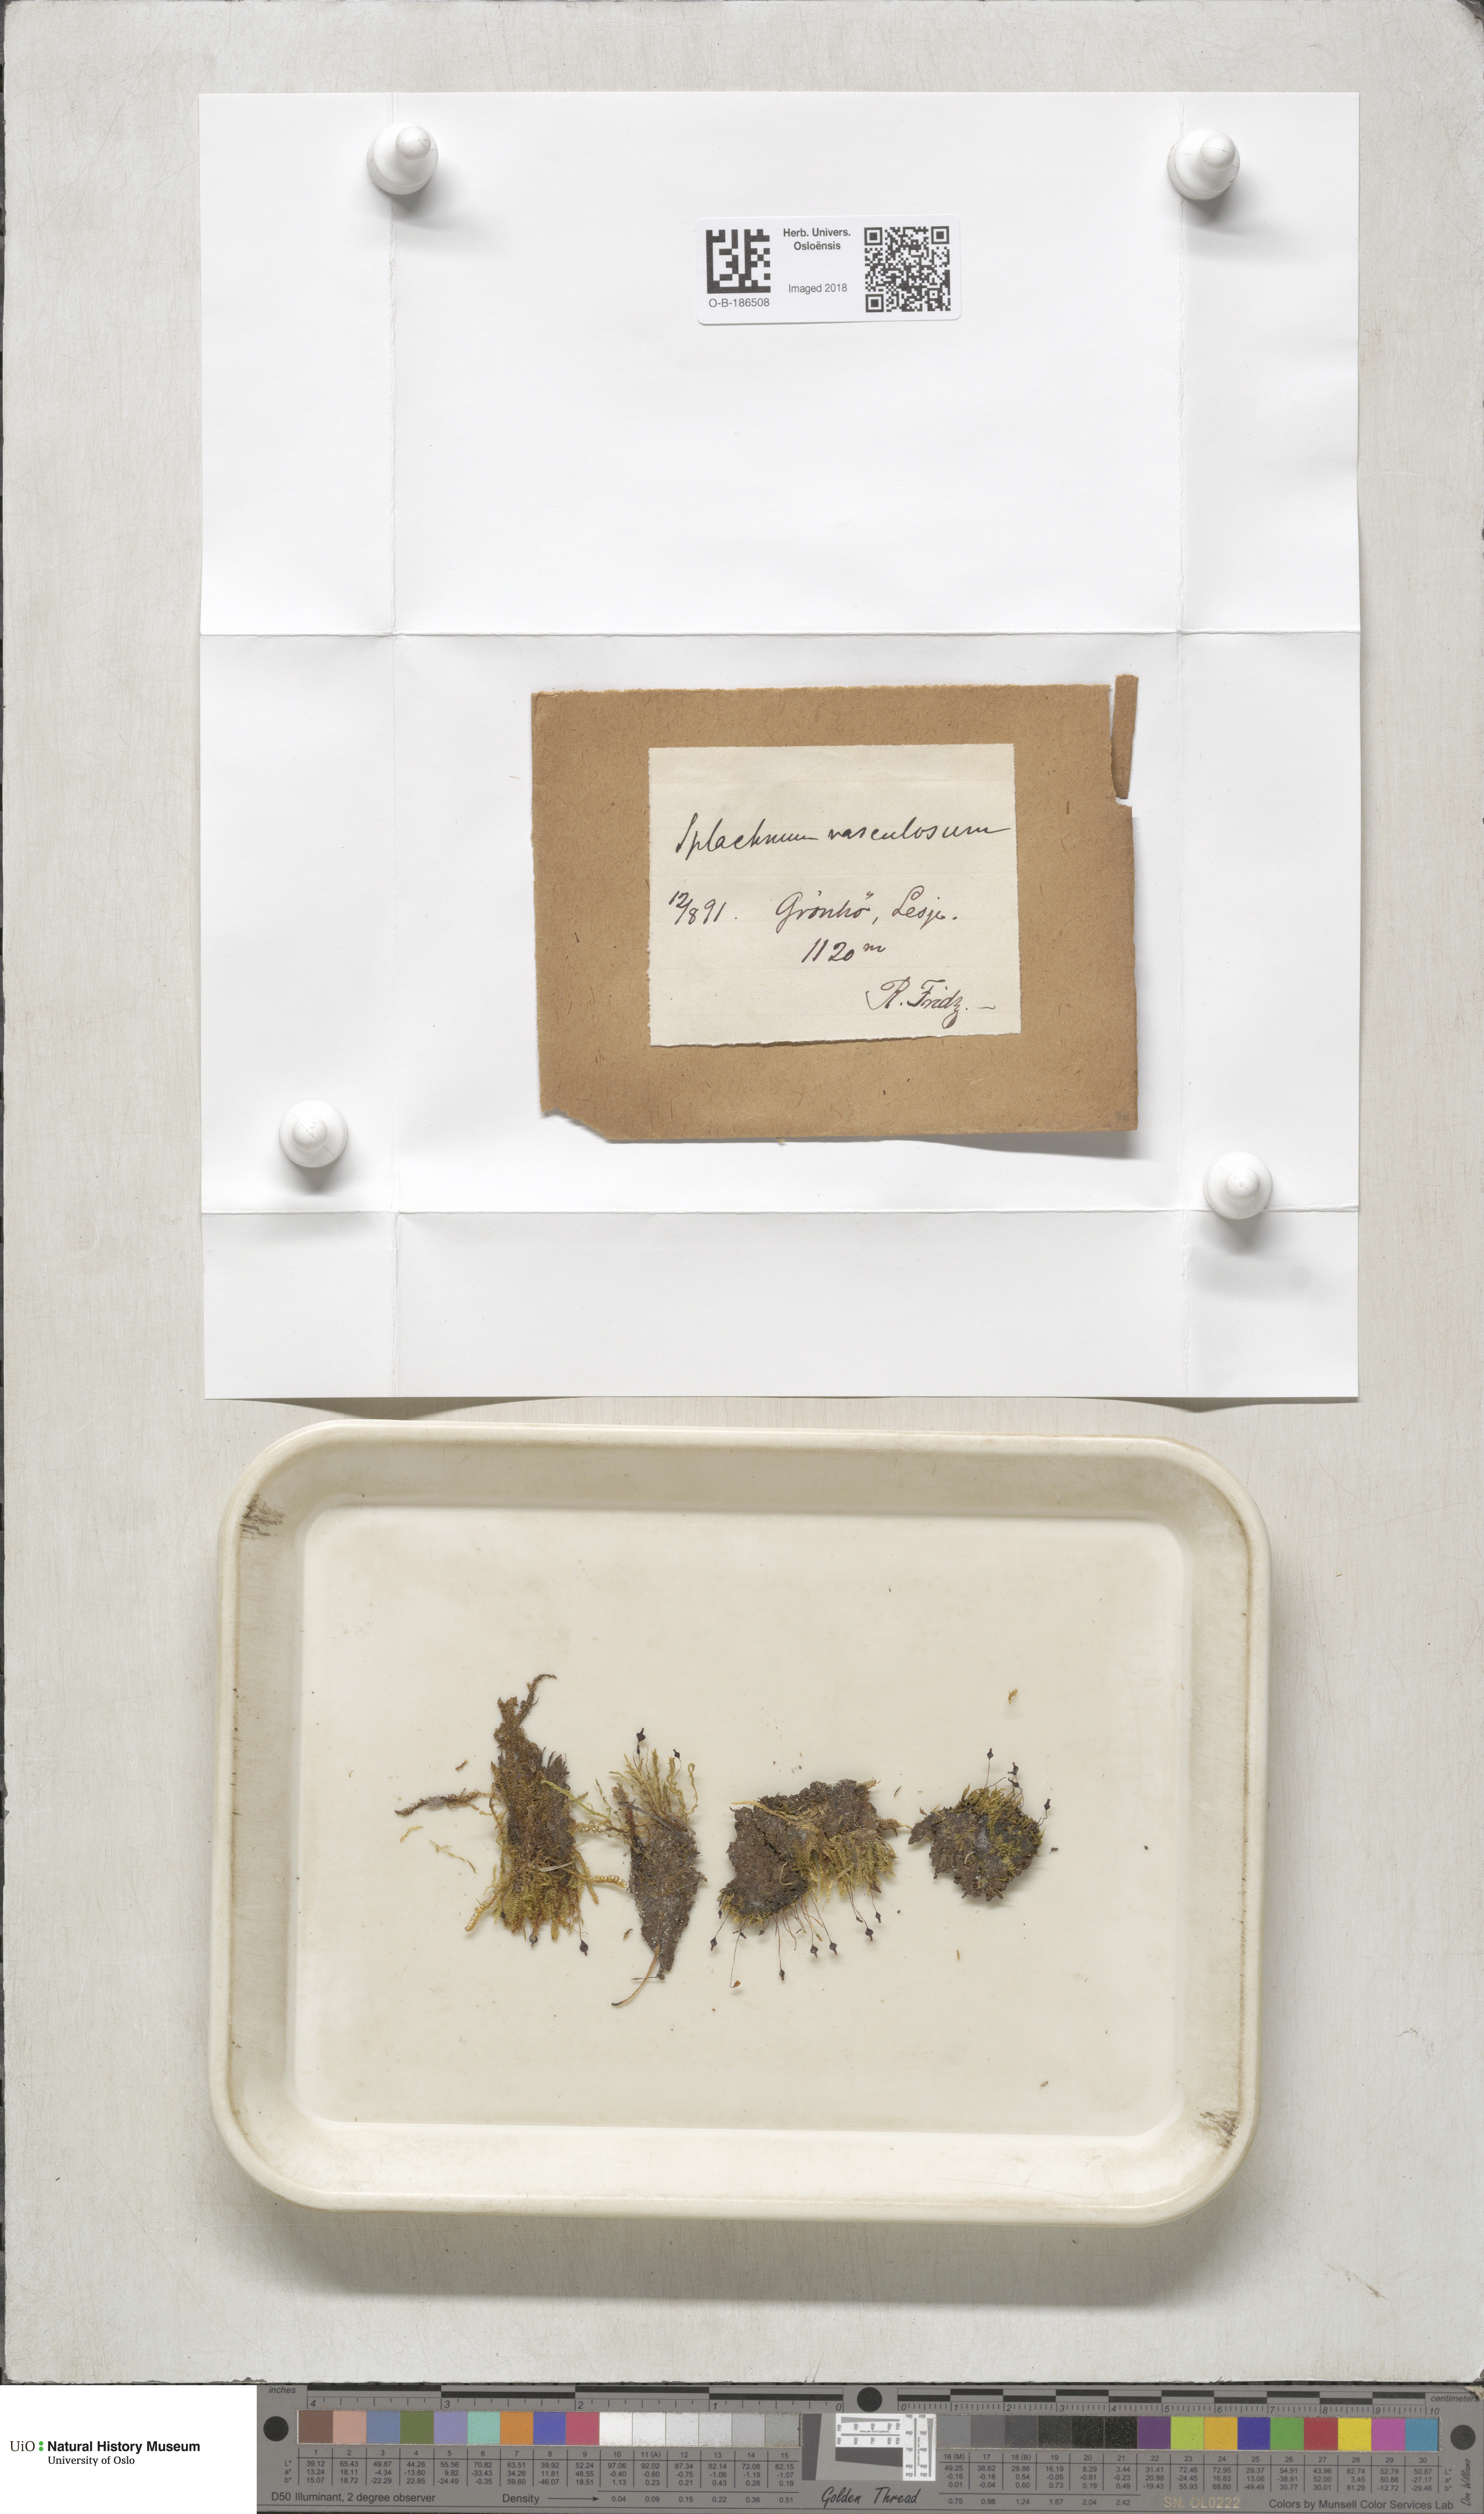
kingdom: Plantae
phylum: Bryophyta
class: Bryopsida
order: Splachnales
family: Splachnaceae
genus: Splachnum
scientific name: Splachnum vasculosum
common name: Rugged dung moss
